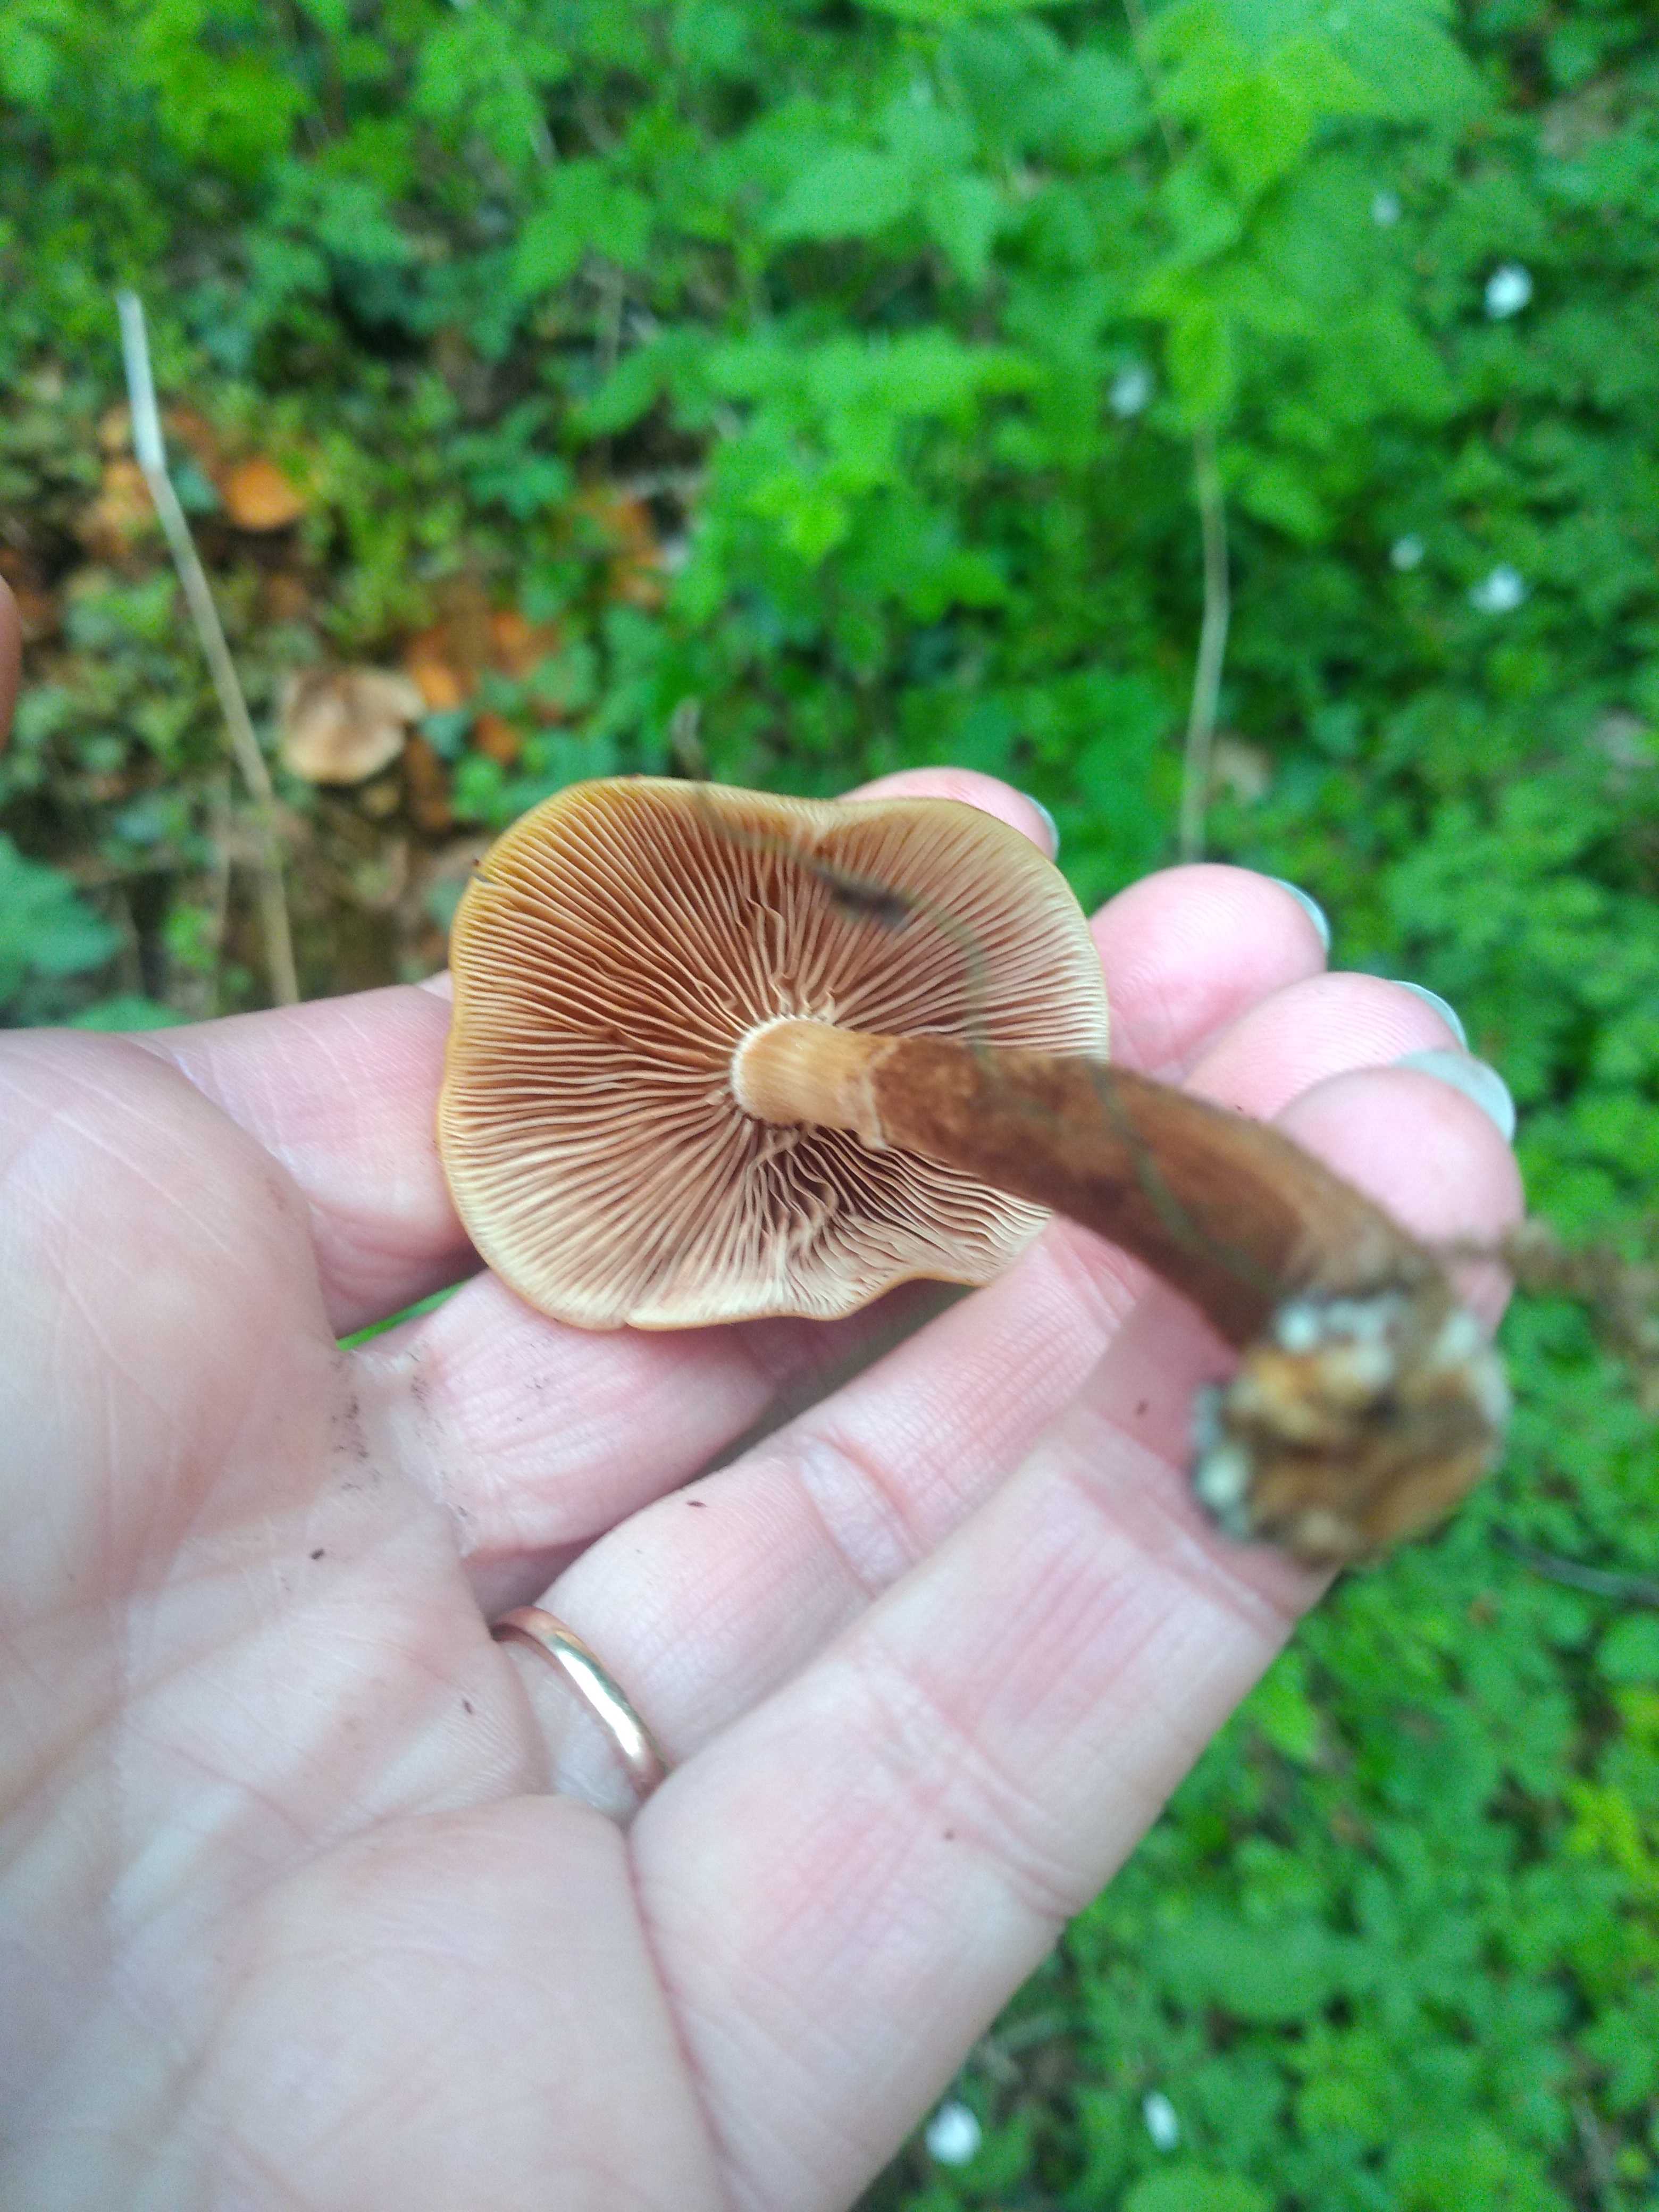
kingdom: Fungi
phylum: Basidiomycota
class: Agaricomycetes
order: Agaricales
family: Strophariaceae
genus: Kuehneromyces
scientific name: Kuehneromyces mutabilis
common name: foranderlig skælhat
